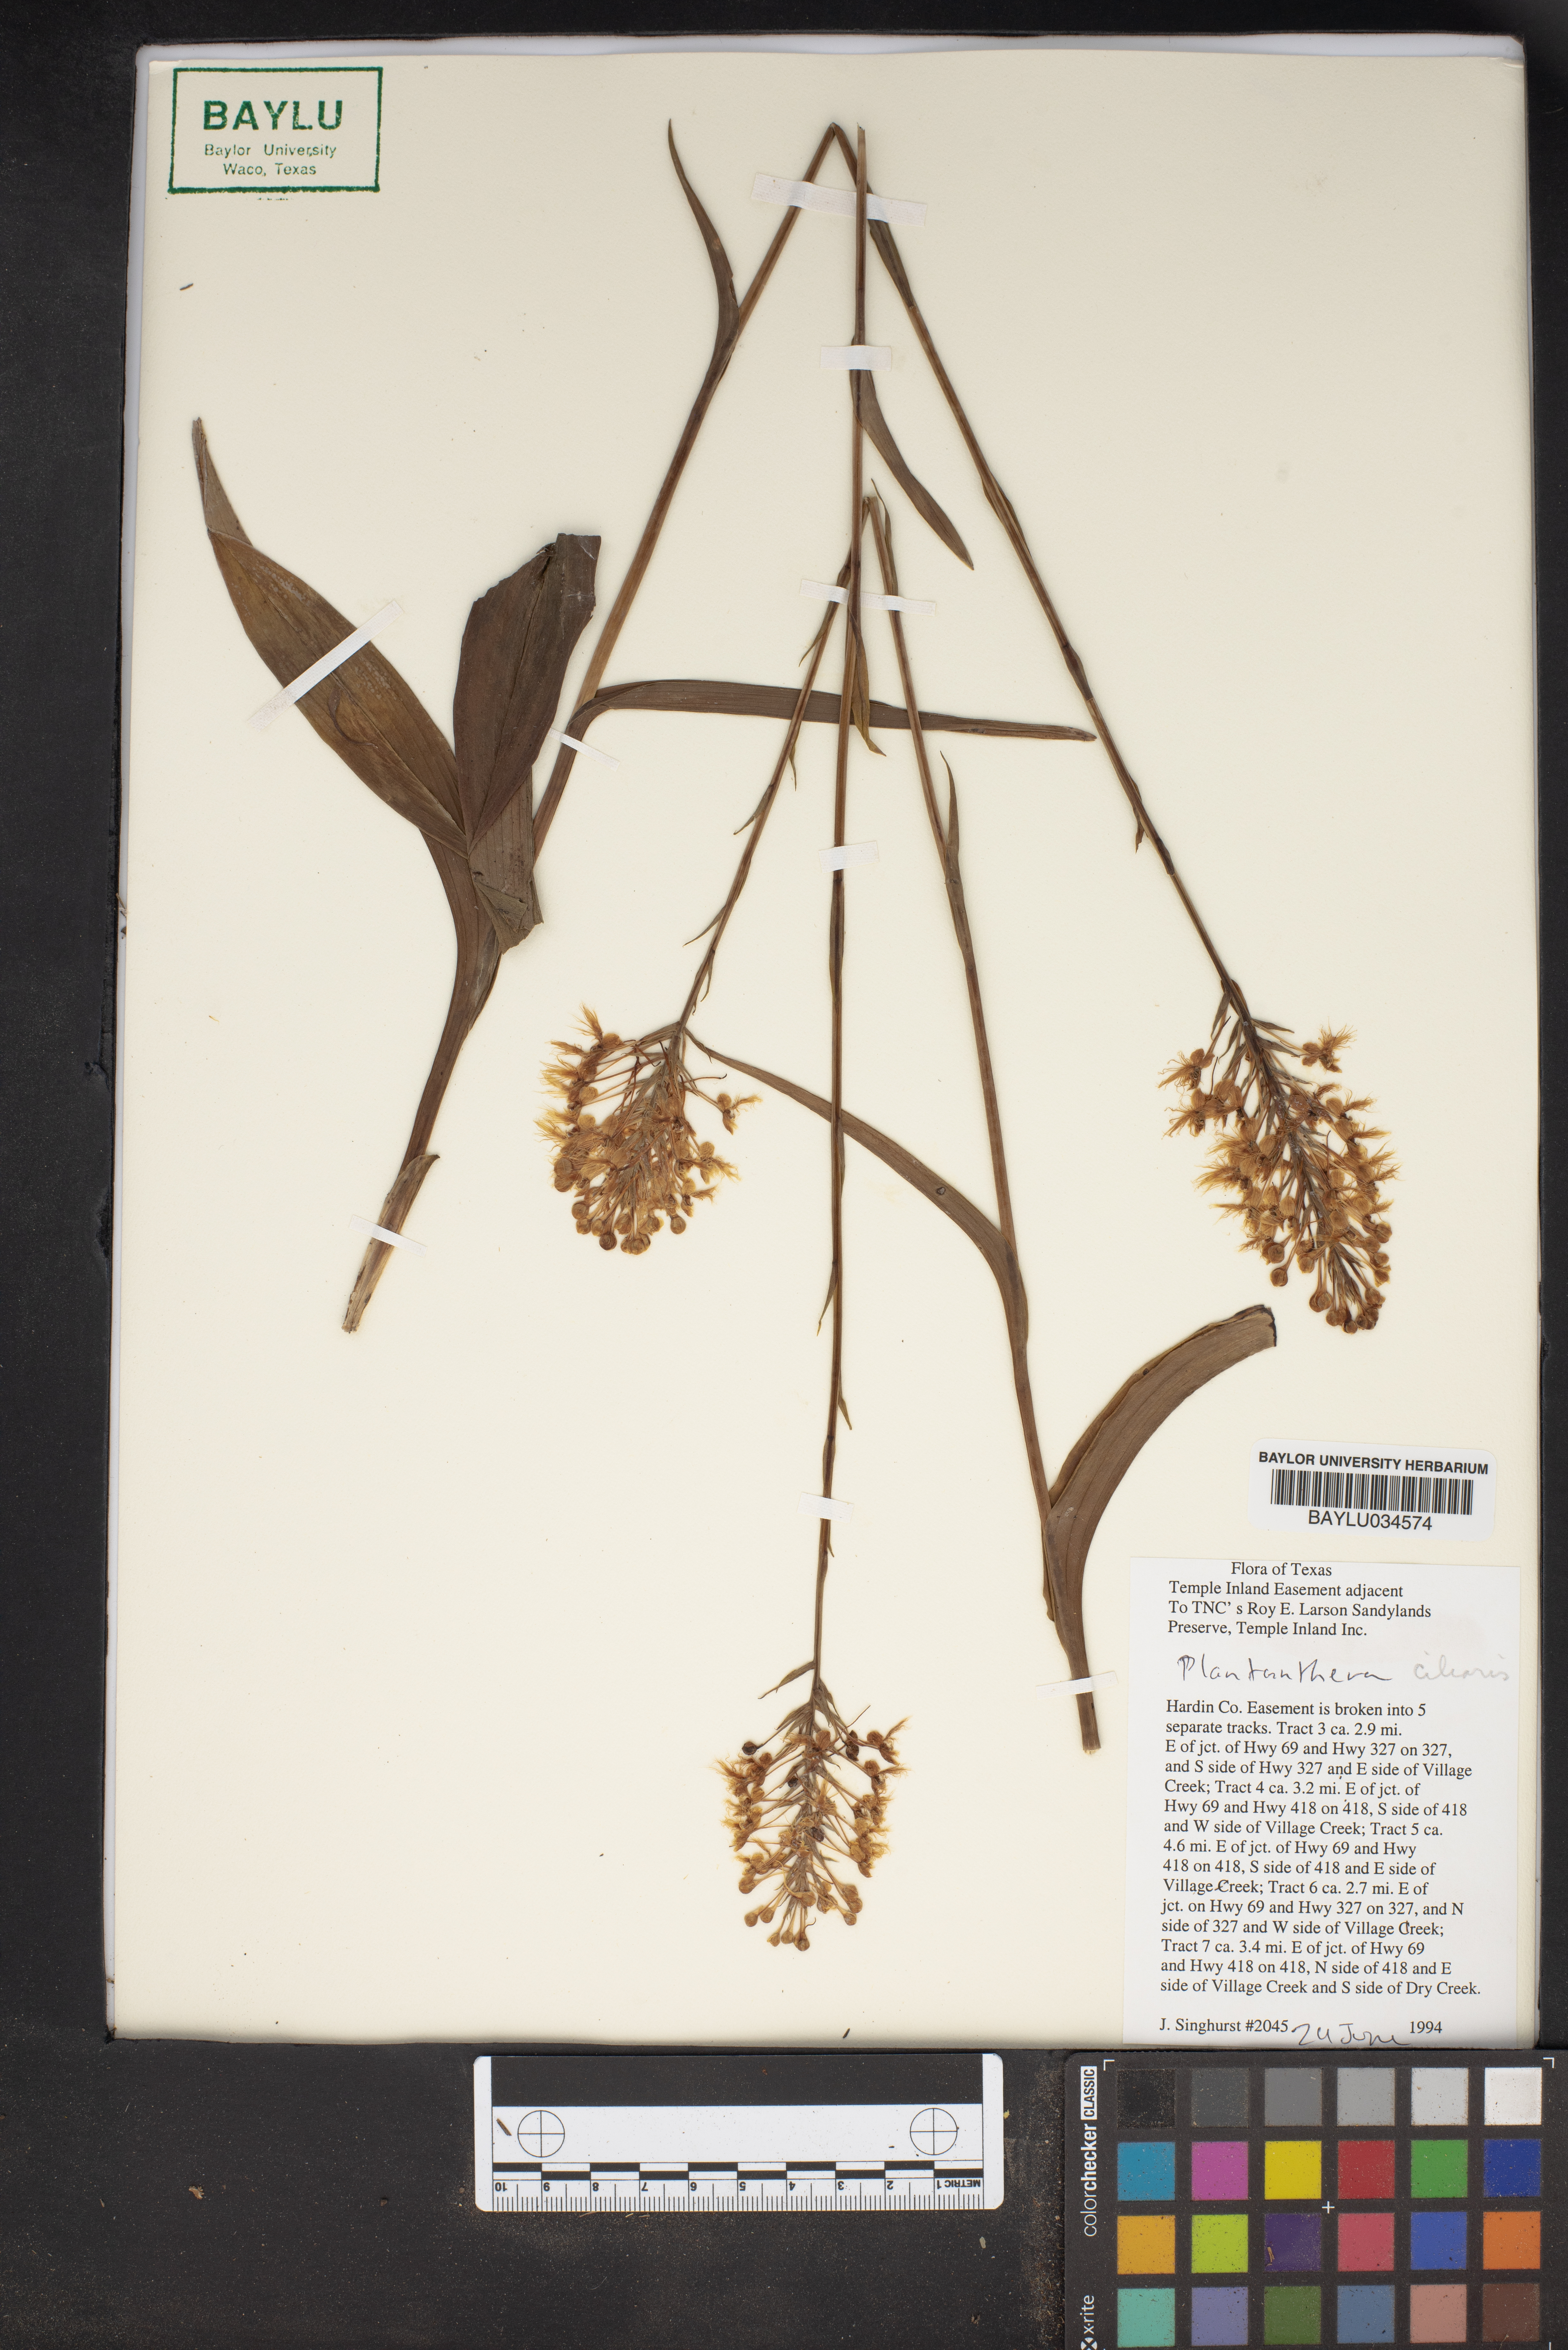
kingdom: Plantae
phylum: Tracheophyta
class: Liliopsida
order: Asparagales
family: Orchidaceae
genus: Platanthera
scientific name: Platanthera ciliaris
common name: Yellow fringed orchid
